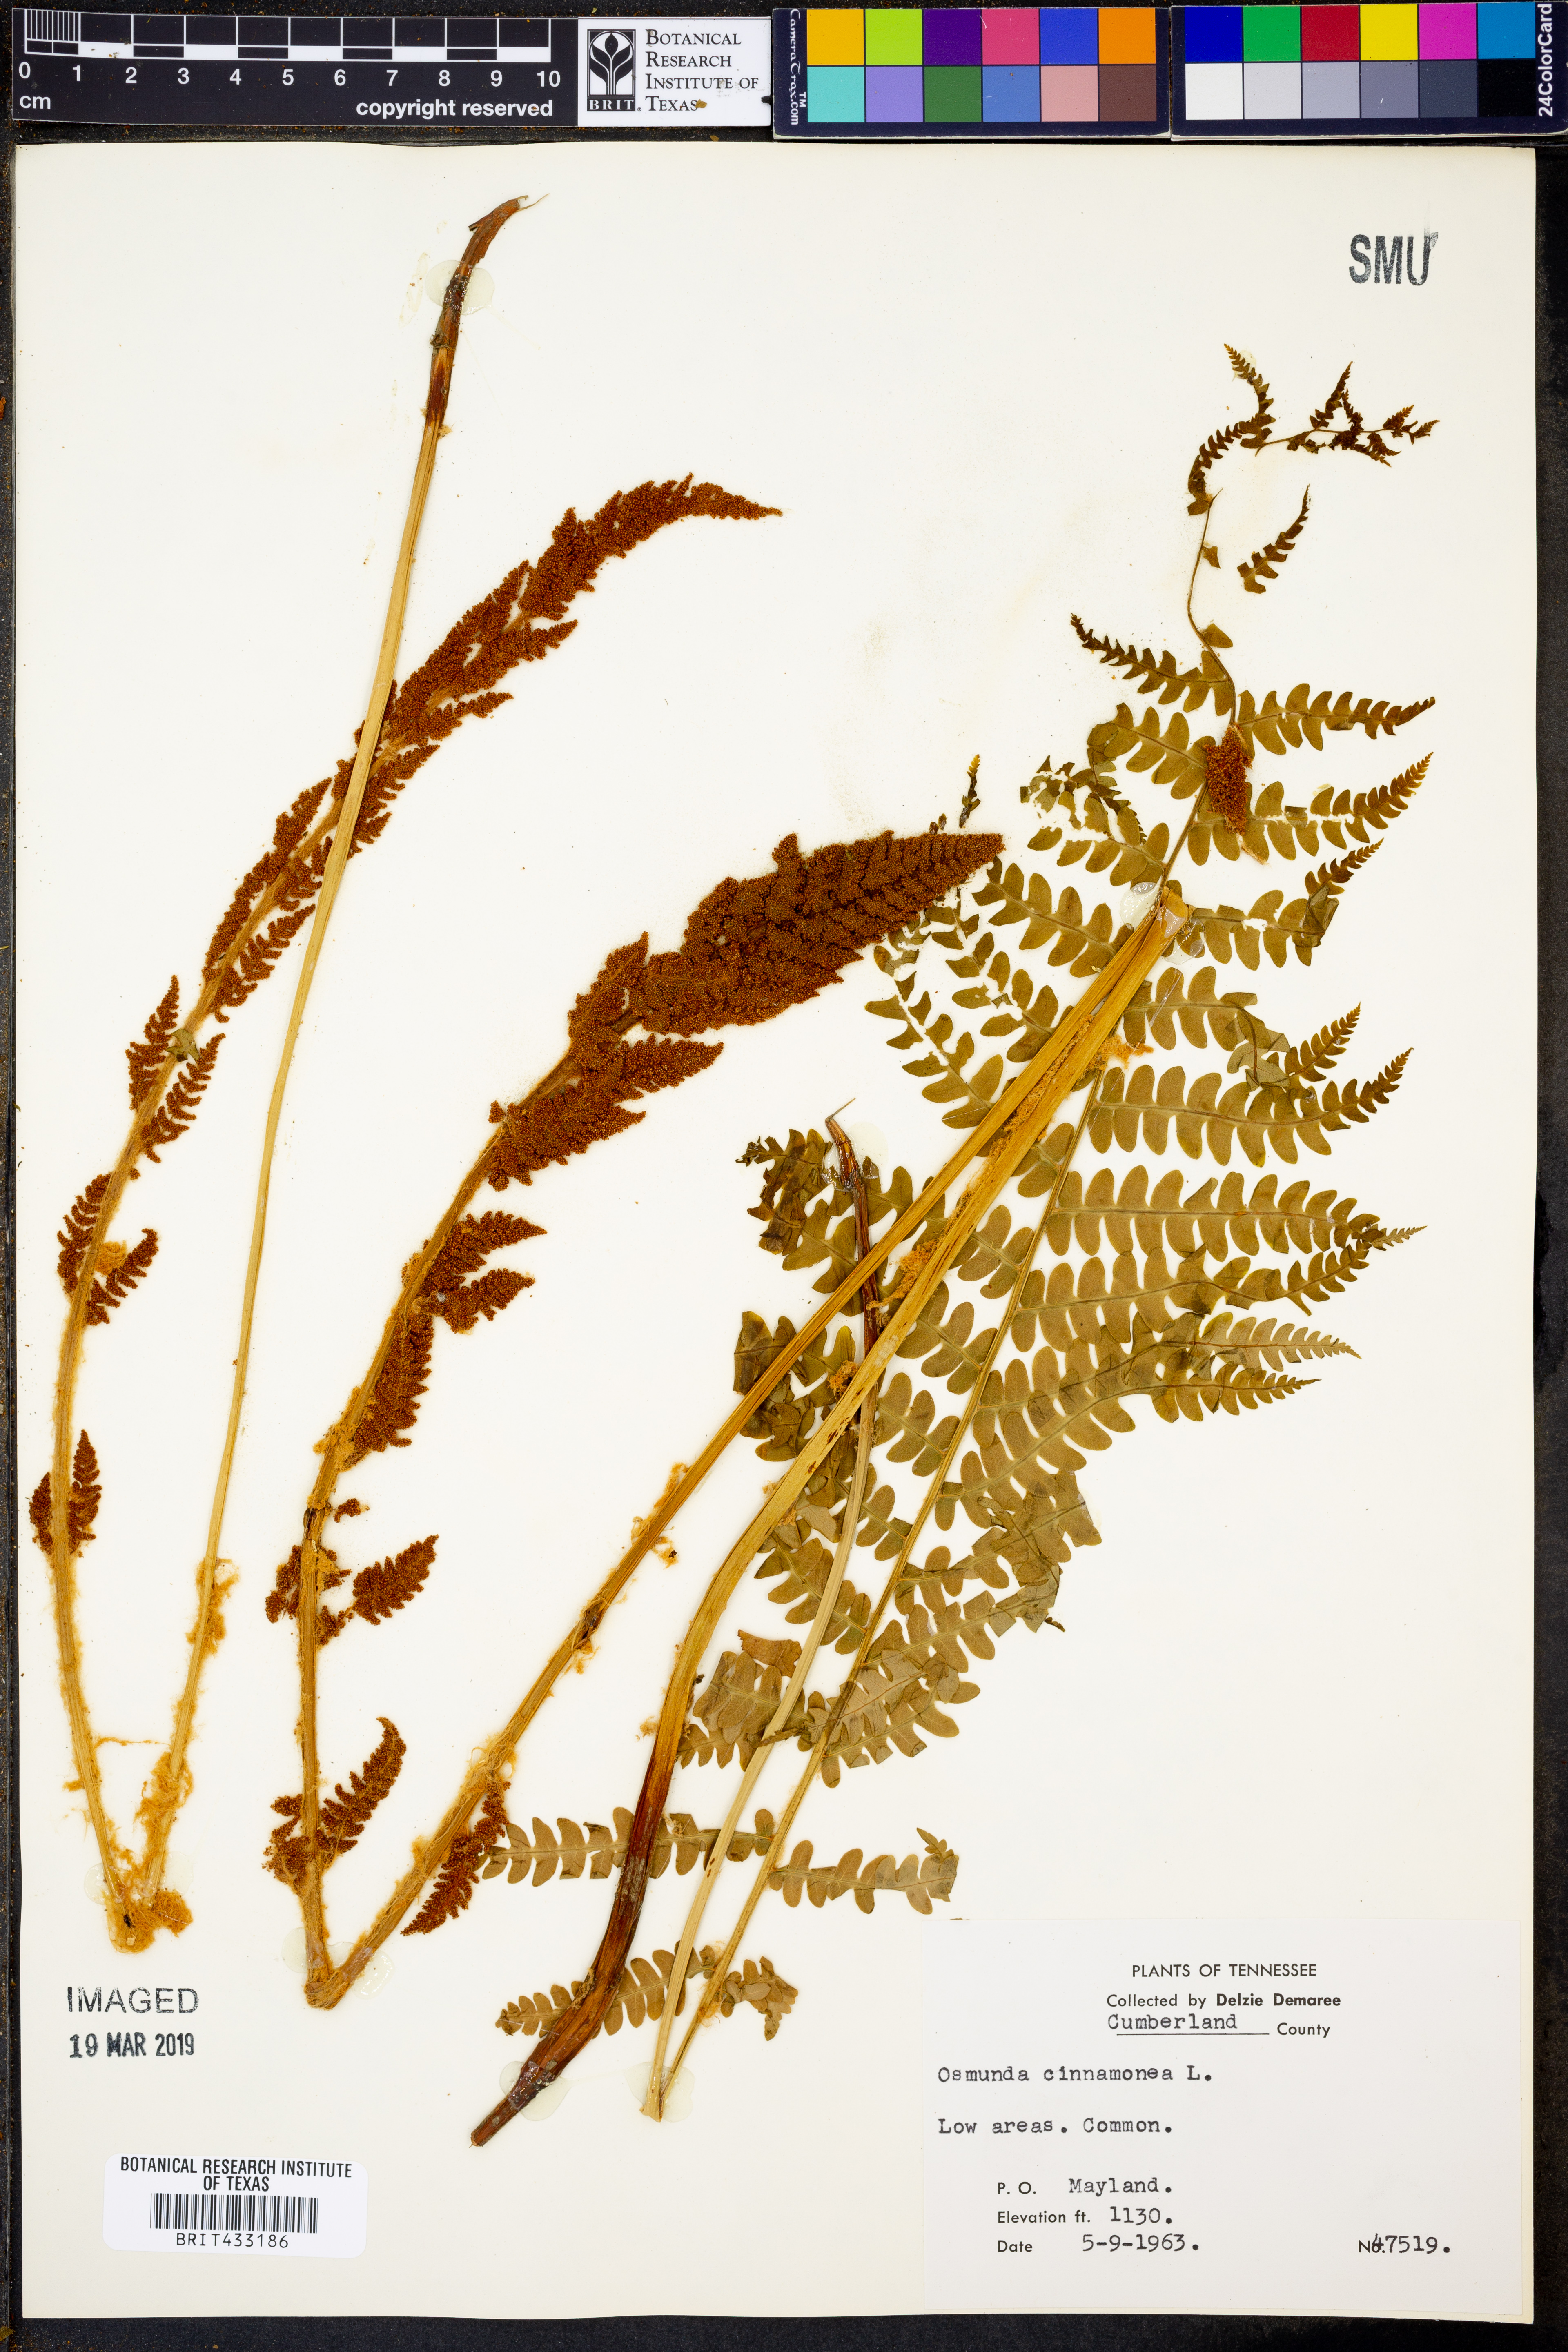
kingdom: Plantae
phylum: Tracheophyta
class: Polypodiopsida
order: Osmundales
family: Osmundaceae
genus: Osmundastrum
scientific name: Osmundastrum cinnamomeum
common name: Cinnamon fern
